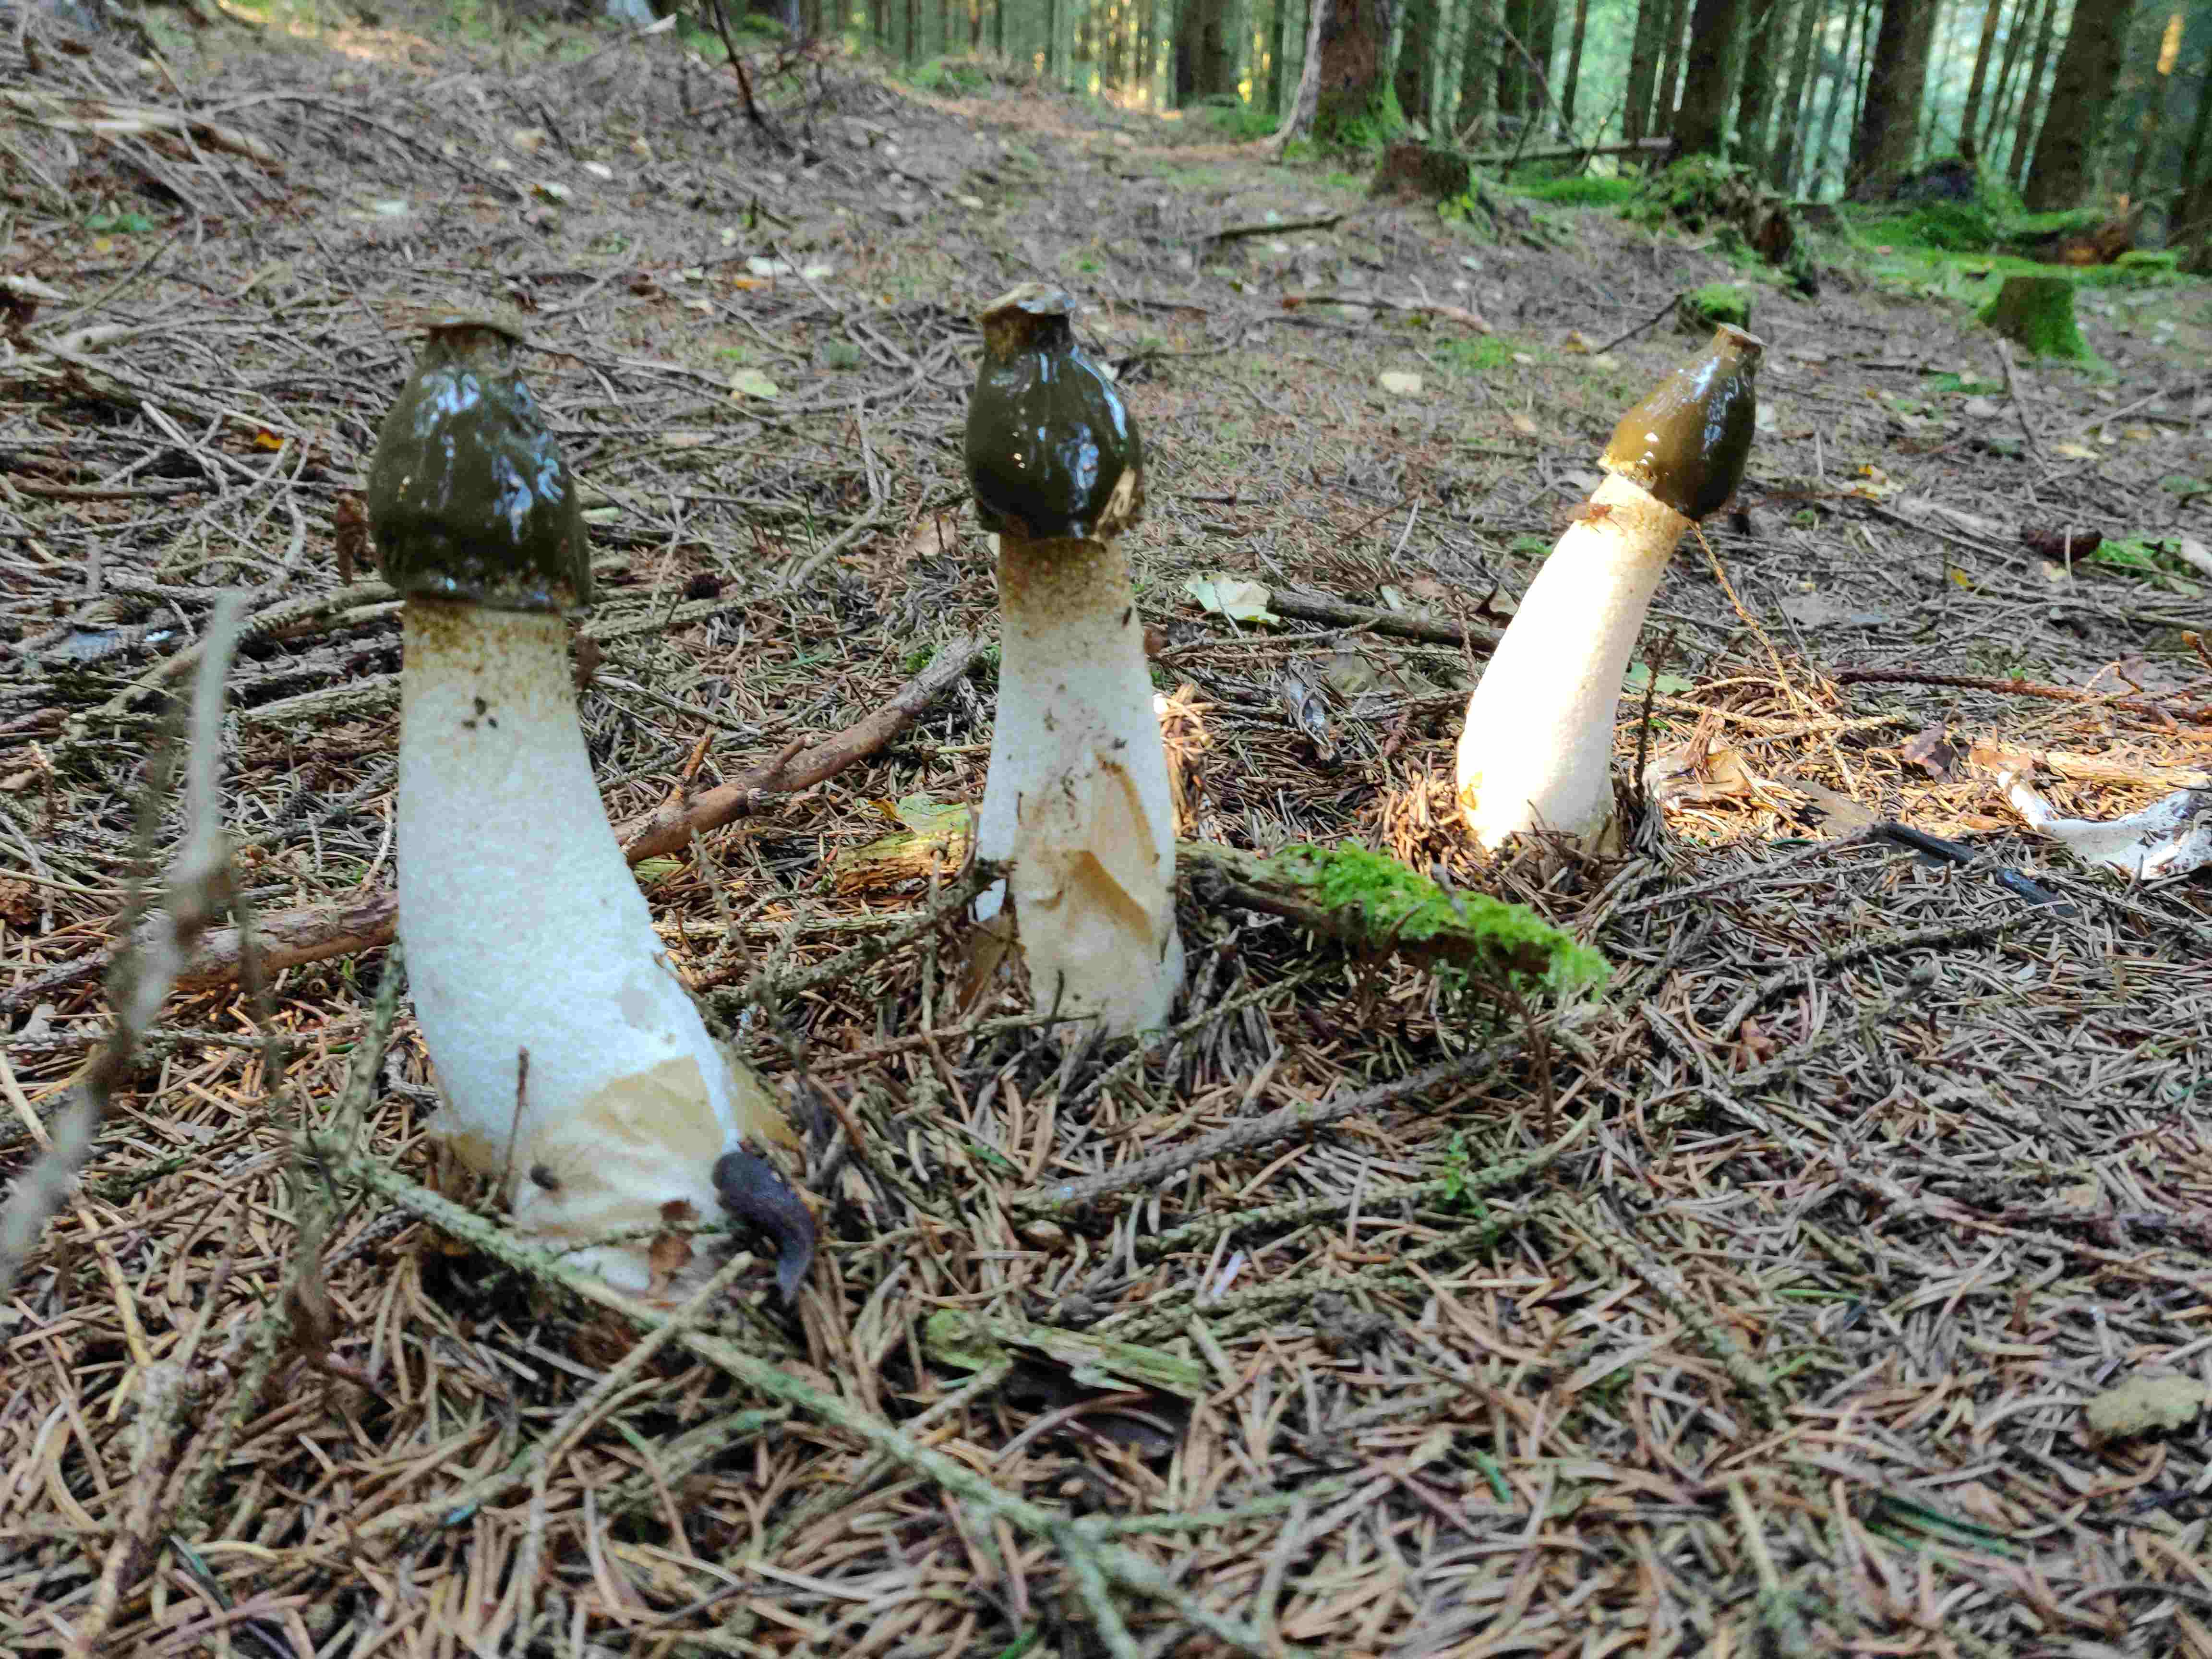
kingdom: Fungi
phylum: Basidiomycota
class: Agaricomycetes
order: Phallales
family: Phallaceae
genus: Phallus
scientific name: Phallus impudicus
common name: almindelig stinksvamp
